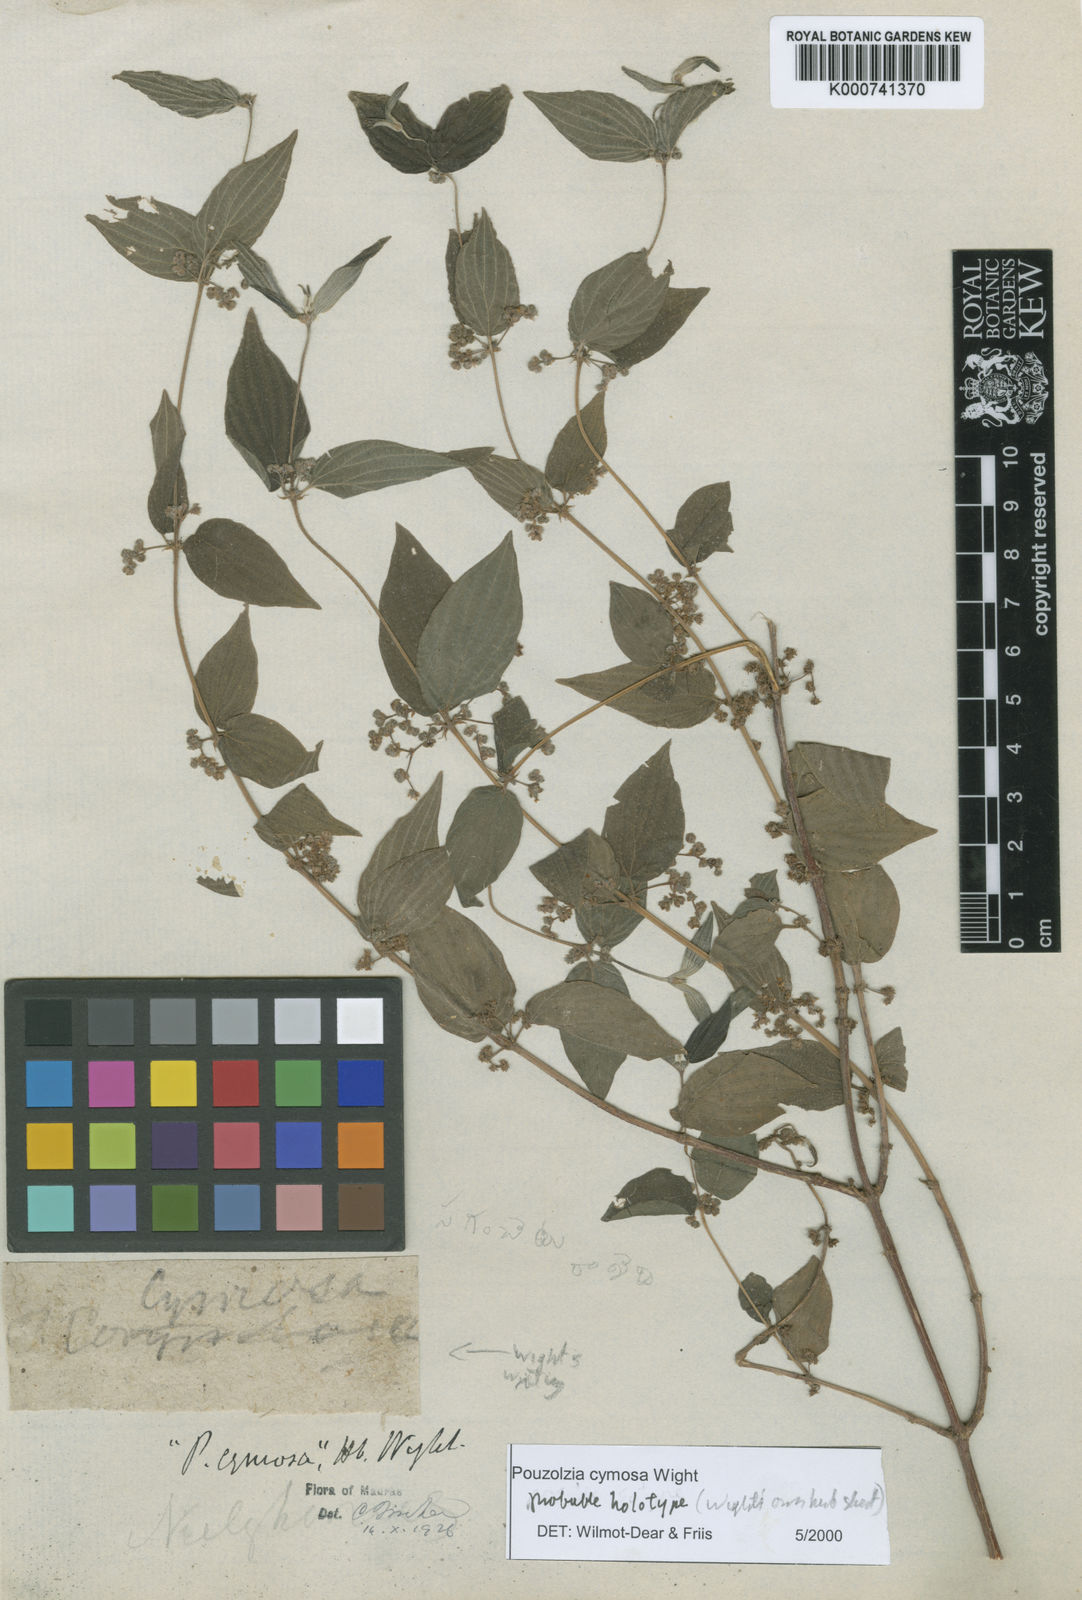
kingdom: Plantae
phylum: Tracheophyta
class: Magnoliopsida
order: Rosales
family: Urticaceae
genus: Pouzolzia
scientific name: Pouzolzia cymosa
